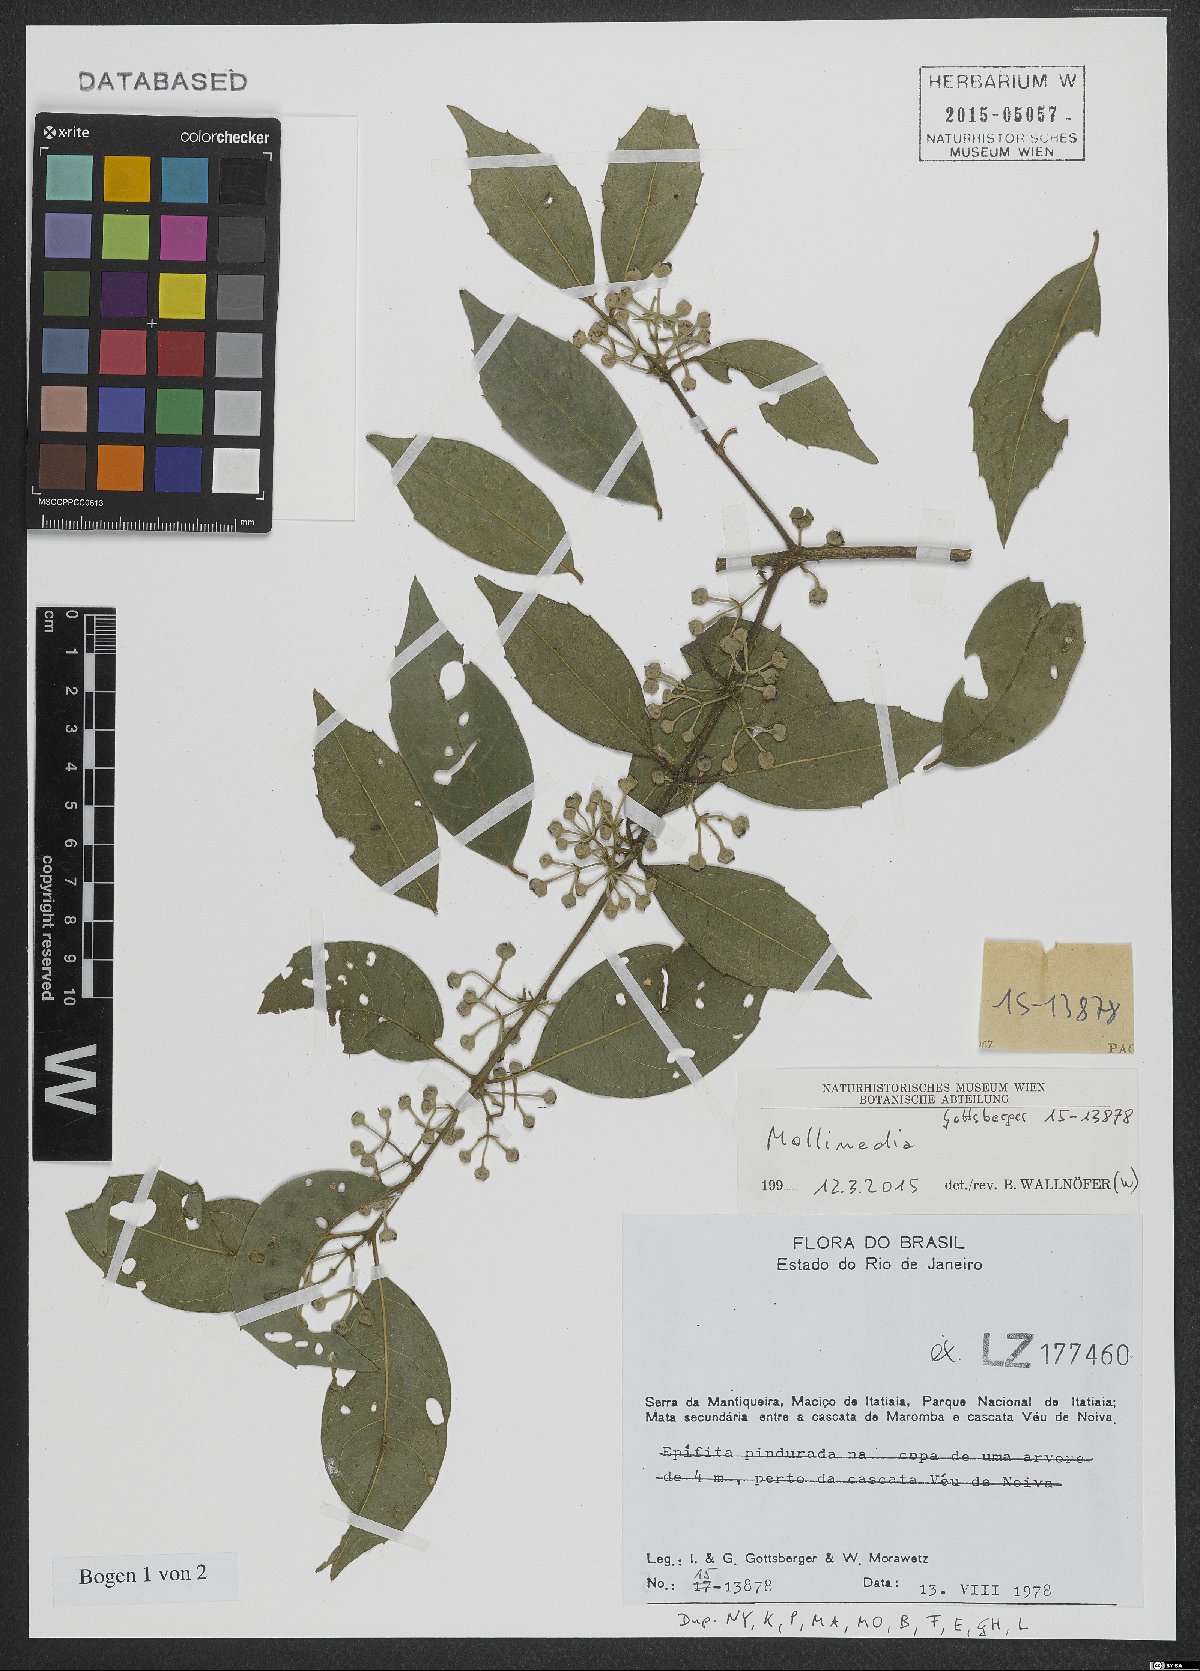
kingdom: Plantae
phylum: Tracheophyta
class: Magnoliopsida
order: Laurales
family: Monimiaceae
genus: Mollinedia
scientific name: Mollinedia
